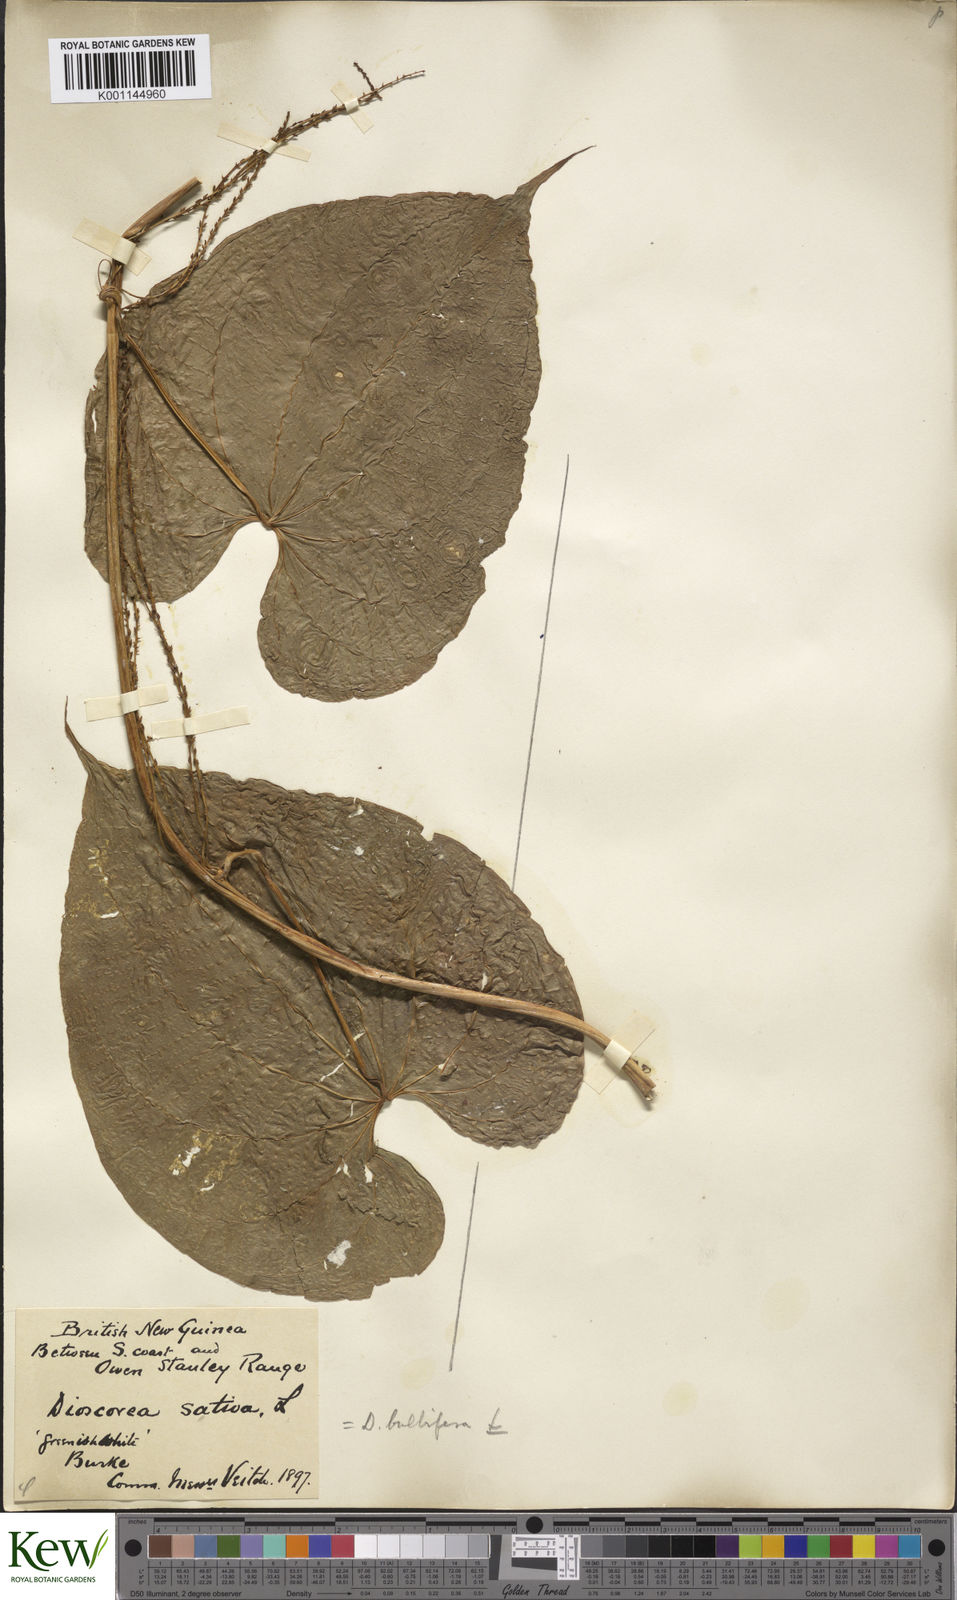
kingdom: Plantae
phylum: Tracheophyta
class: Liliopsida
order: Dioscoreales
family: Dioscoreaceae
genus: Dioscorea
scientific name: Dioscorea bulbifera
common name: Air yam
